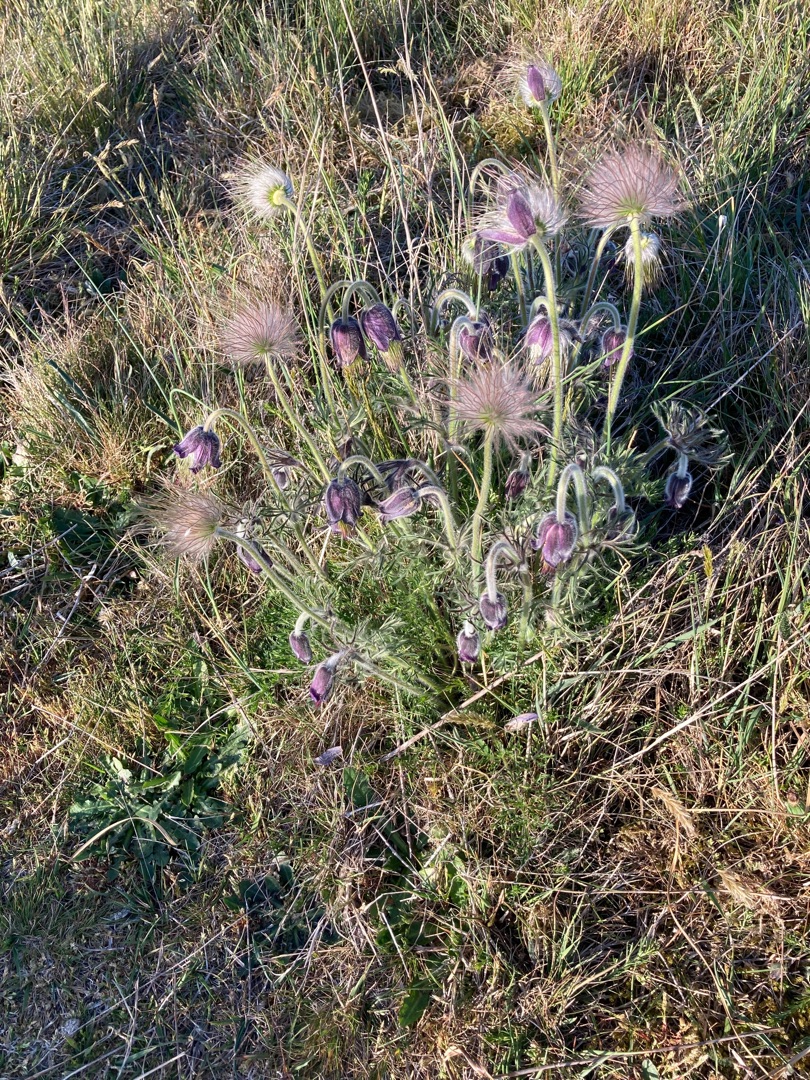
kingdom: Plantae
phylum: Tracheophyta
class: Magnoliopsida
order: Ranunculales
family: Ranunculaceae
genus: Pulsatilla
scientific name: Pulsatilla pratensis
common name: Nikkende kobjælde
